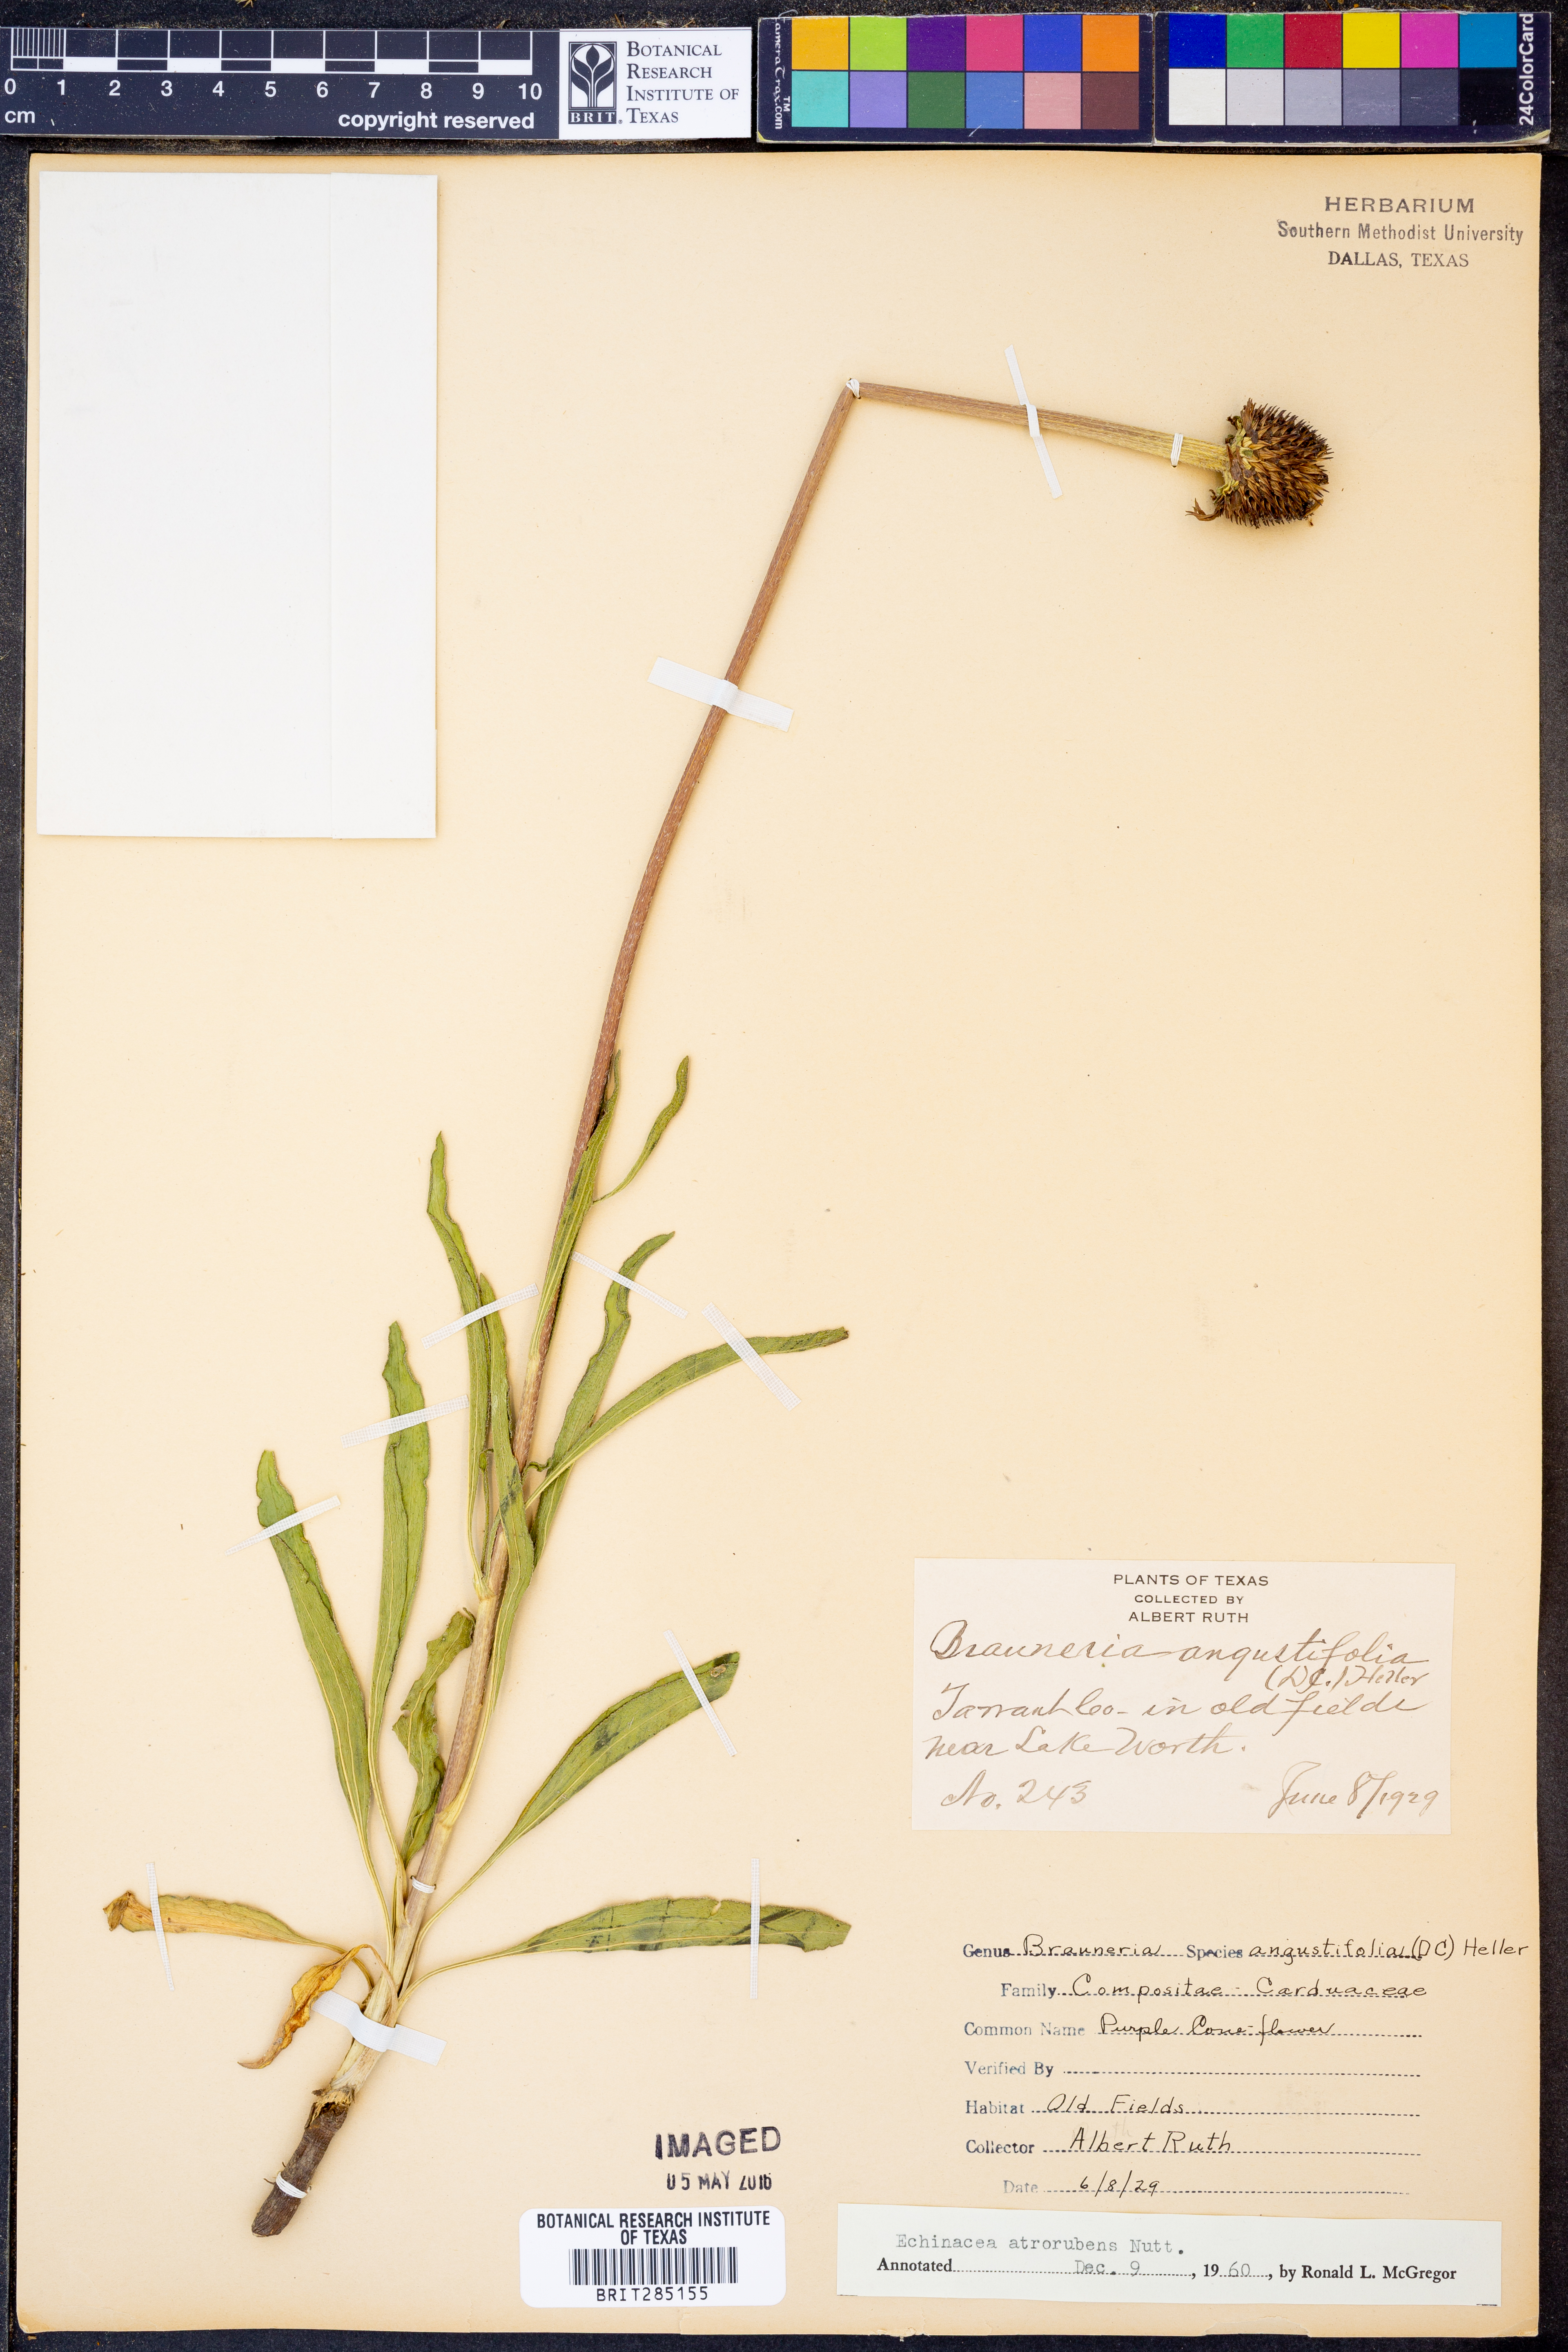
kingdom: Plantae
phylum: Tracheophyta
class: Magnoliopsida
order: Asterales
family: Asteraceae
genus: Echinacea
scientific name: Echinacea atrorubens
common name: Topeka purple-coneflower
